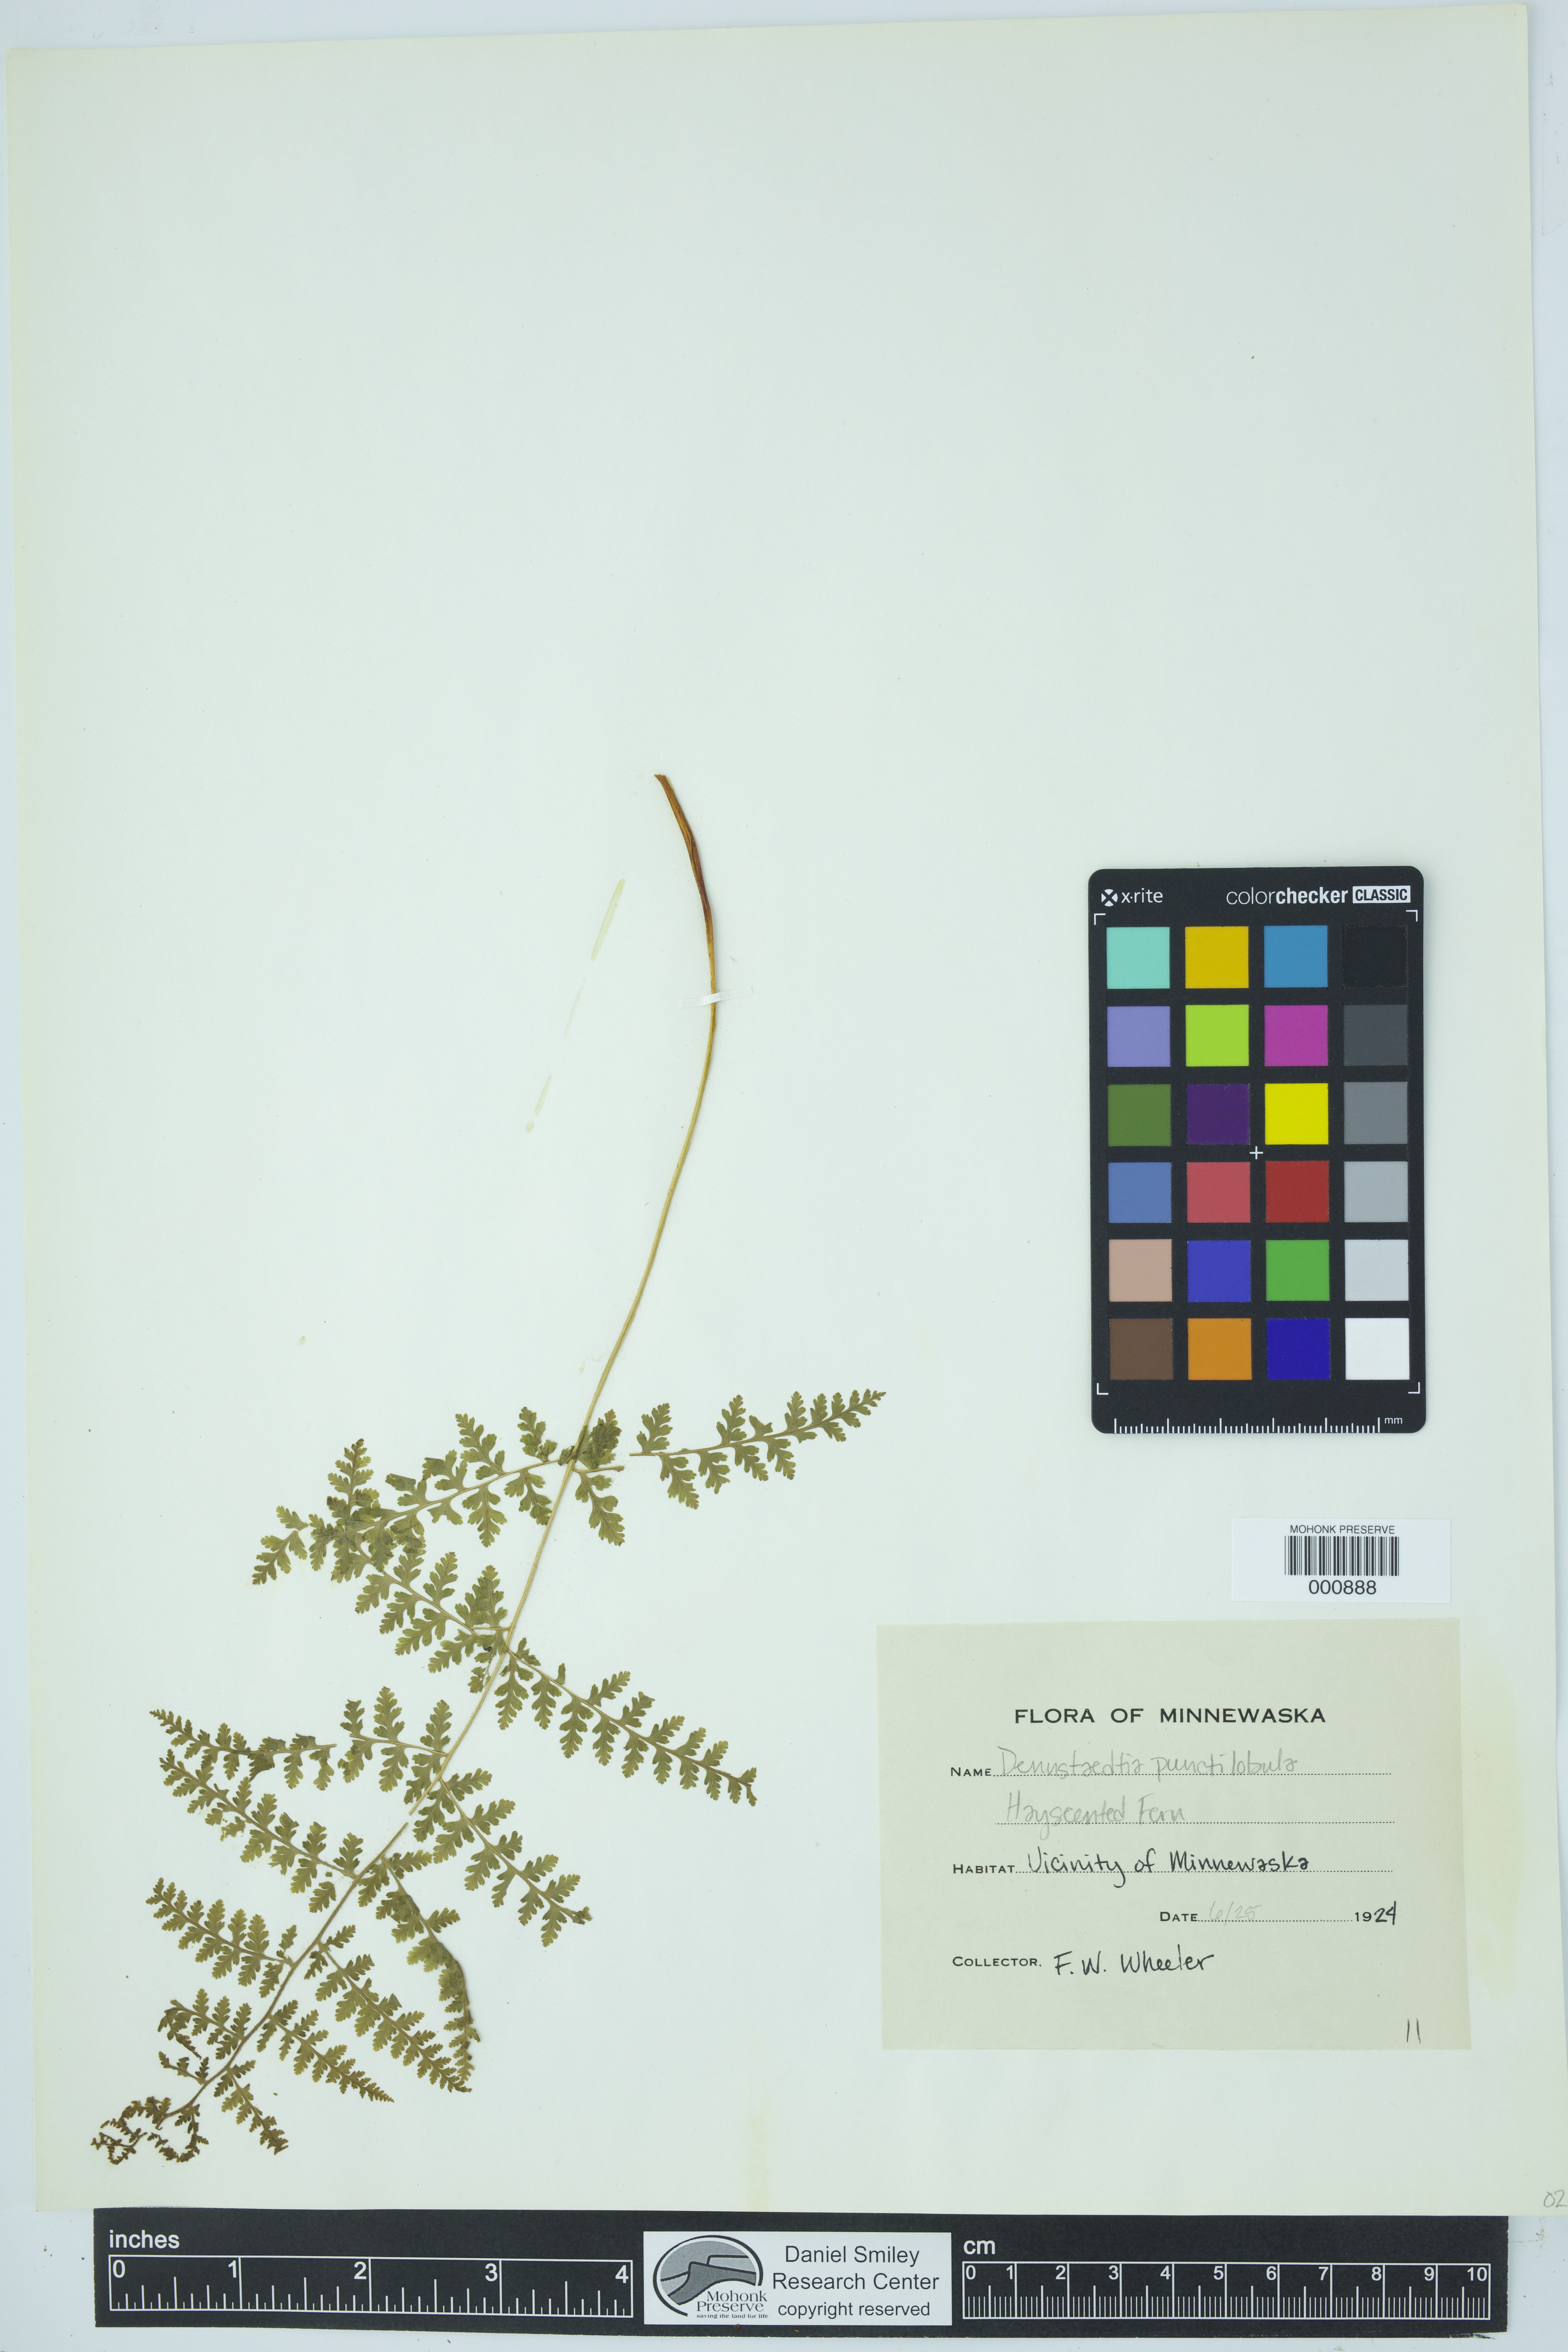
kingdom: Plantae
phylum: Tracheophyta
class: Polypodiopsida
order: Polypodiales
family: Dennstaedtiaceae
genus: Sitobolium
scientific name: Sitobolium punctilobum
